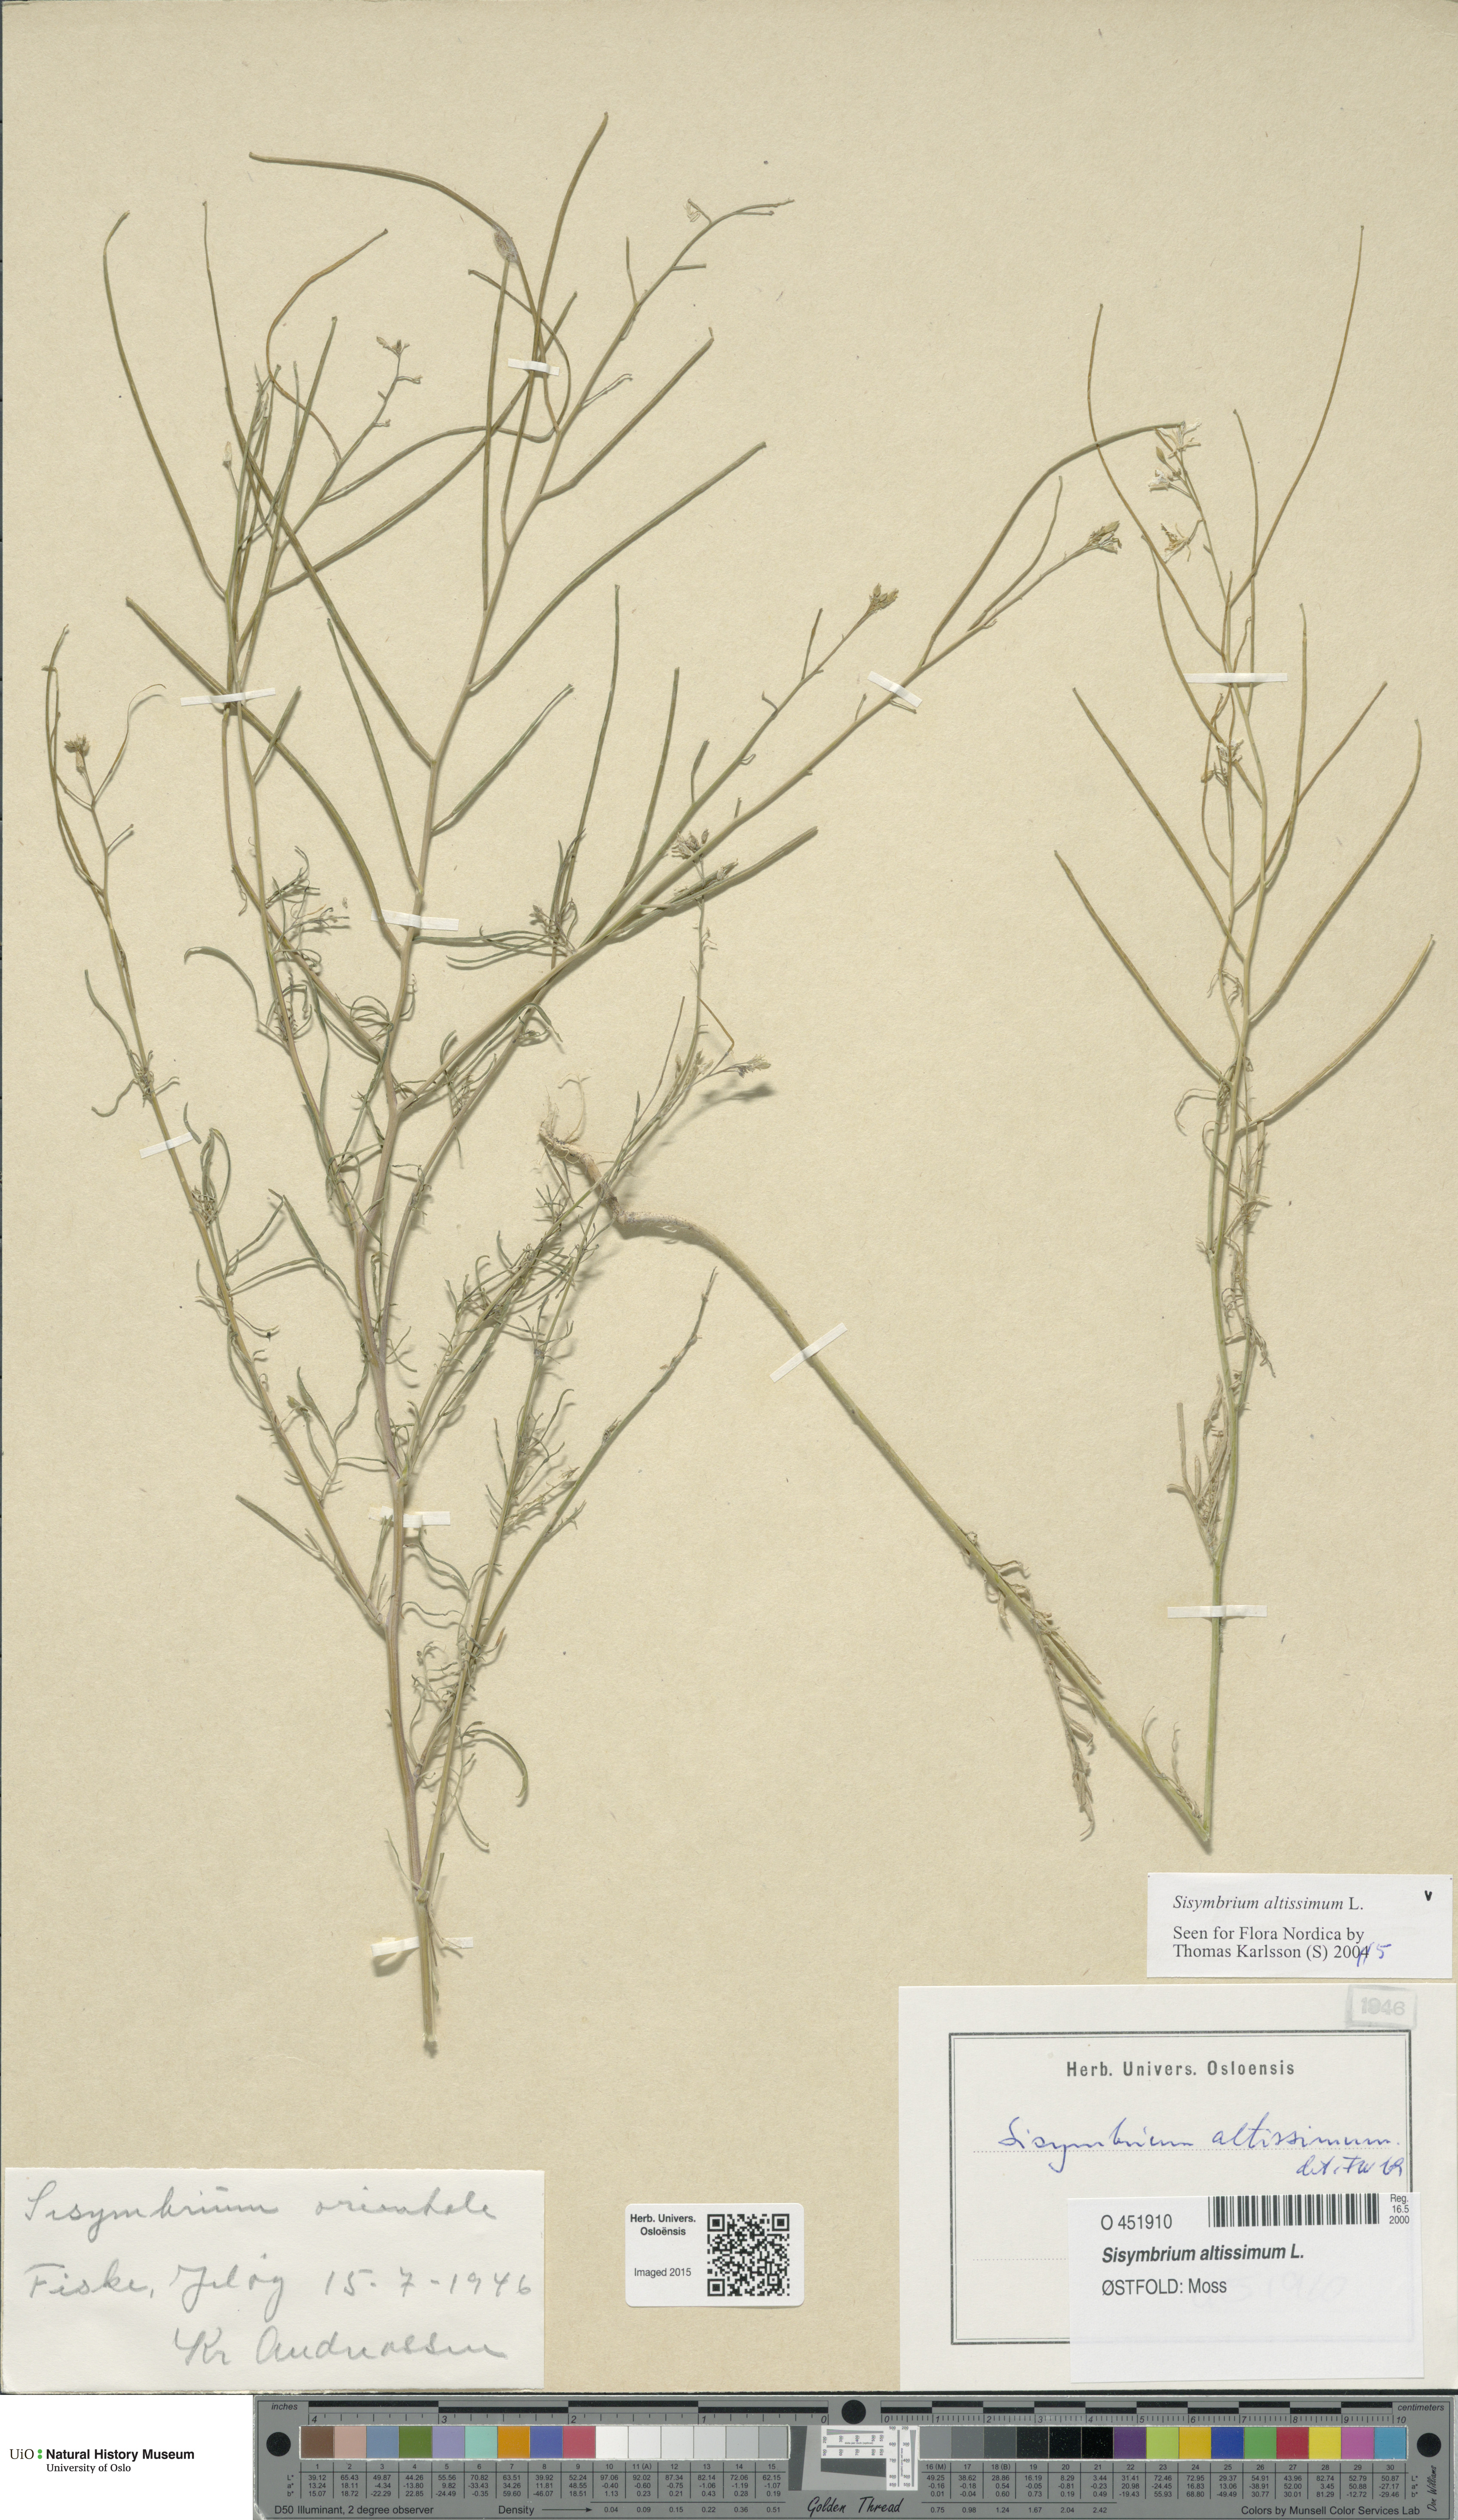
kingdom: Plantae
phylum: Tracheophyta
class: Magnoliopsida
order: Brassicales
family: Brassicaceae
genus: Sisymbrium
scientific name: Sisymbrium altissimum
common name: Tall rocket
